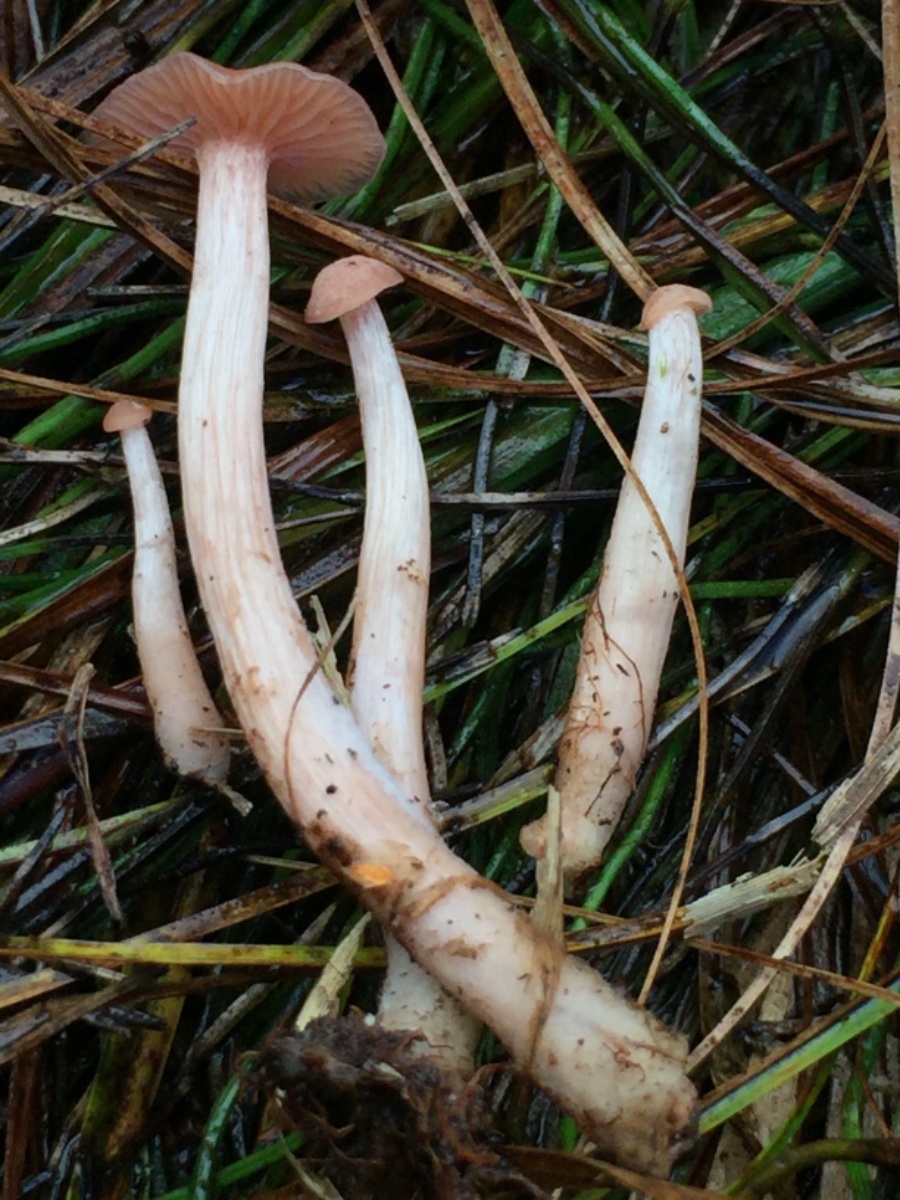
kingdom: Fungi
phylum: Basidiomycota
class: Agaricomycetes
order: Agaricales
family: Hydnangiaceae
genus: Laccaria
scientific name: Laccaria
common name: ametysthat
